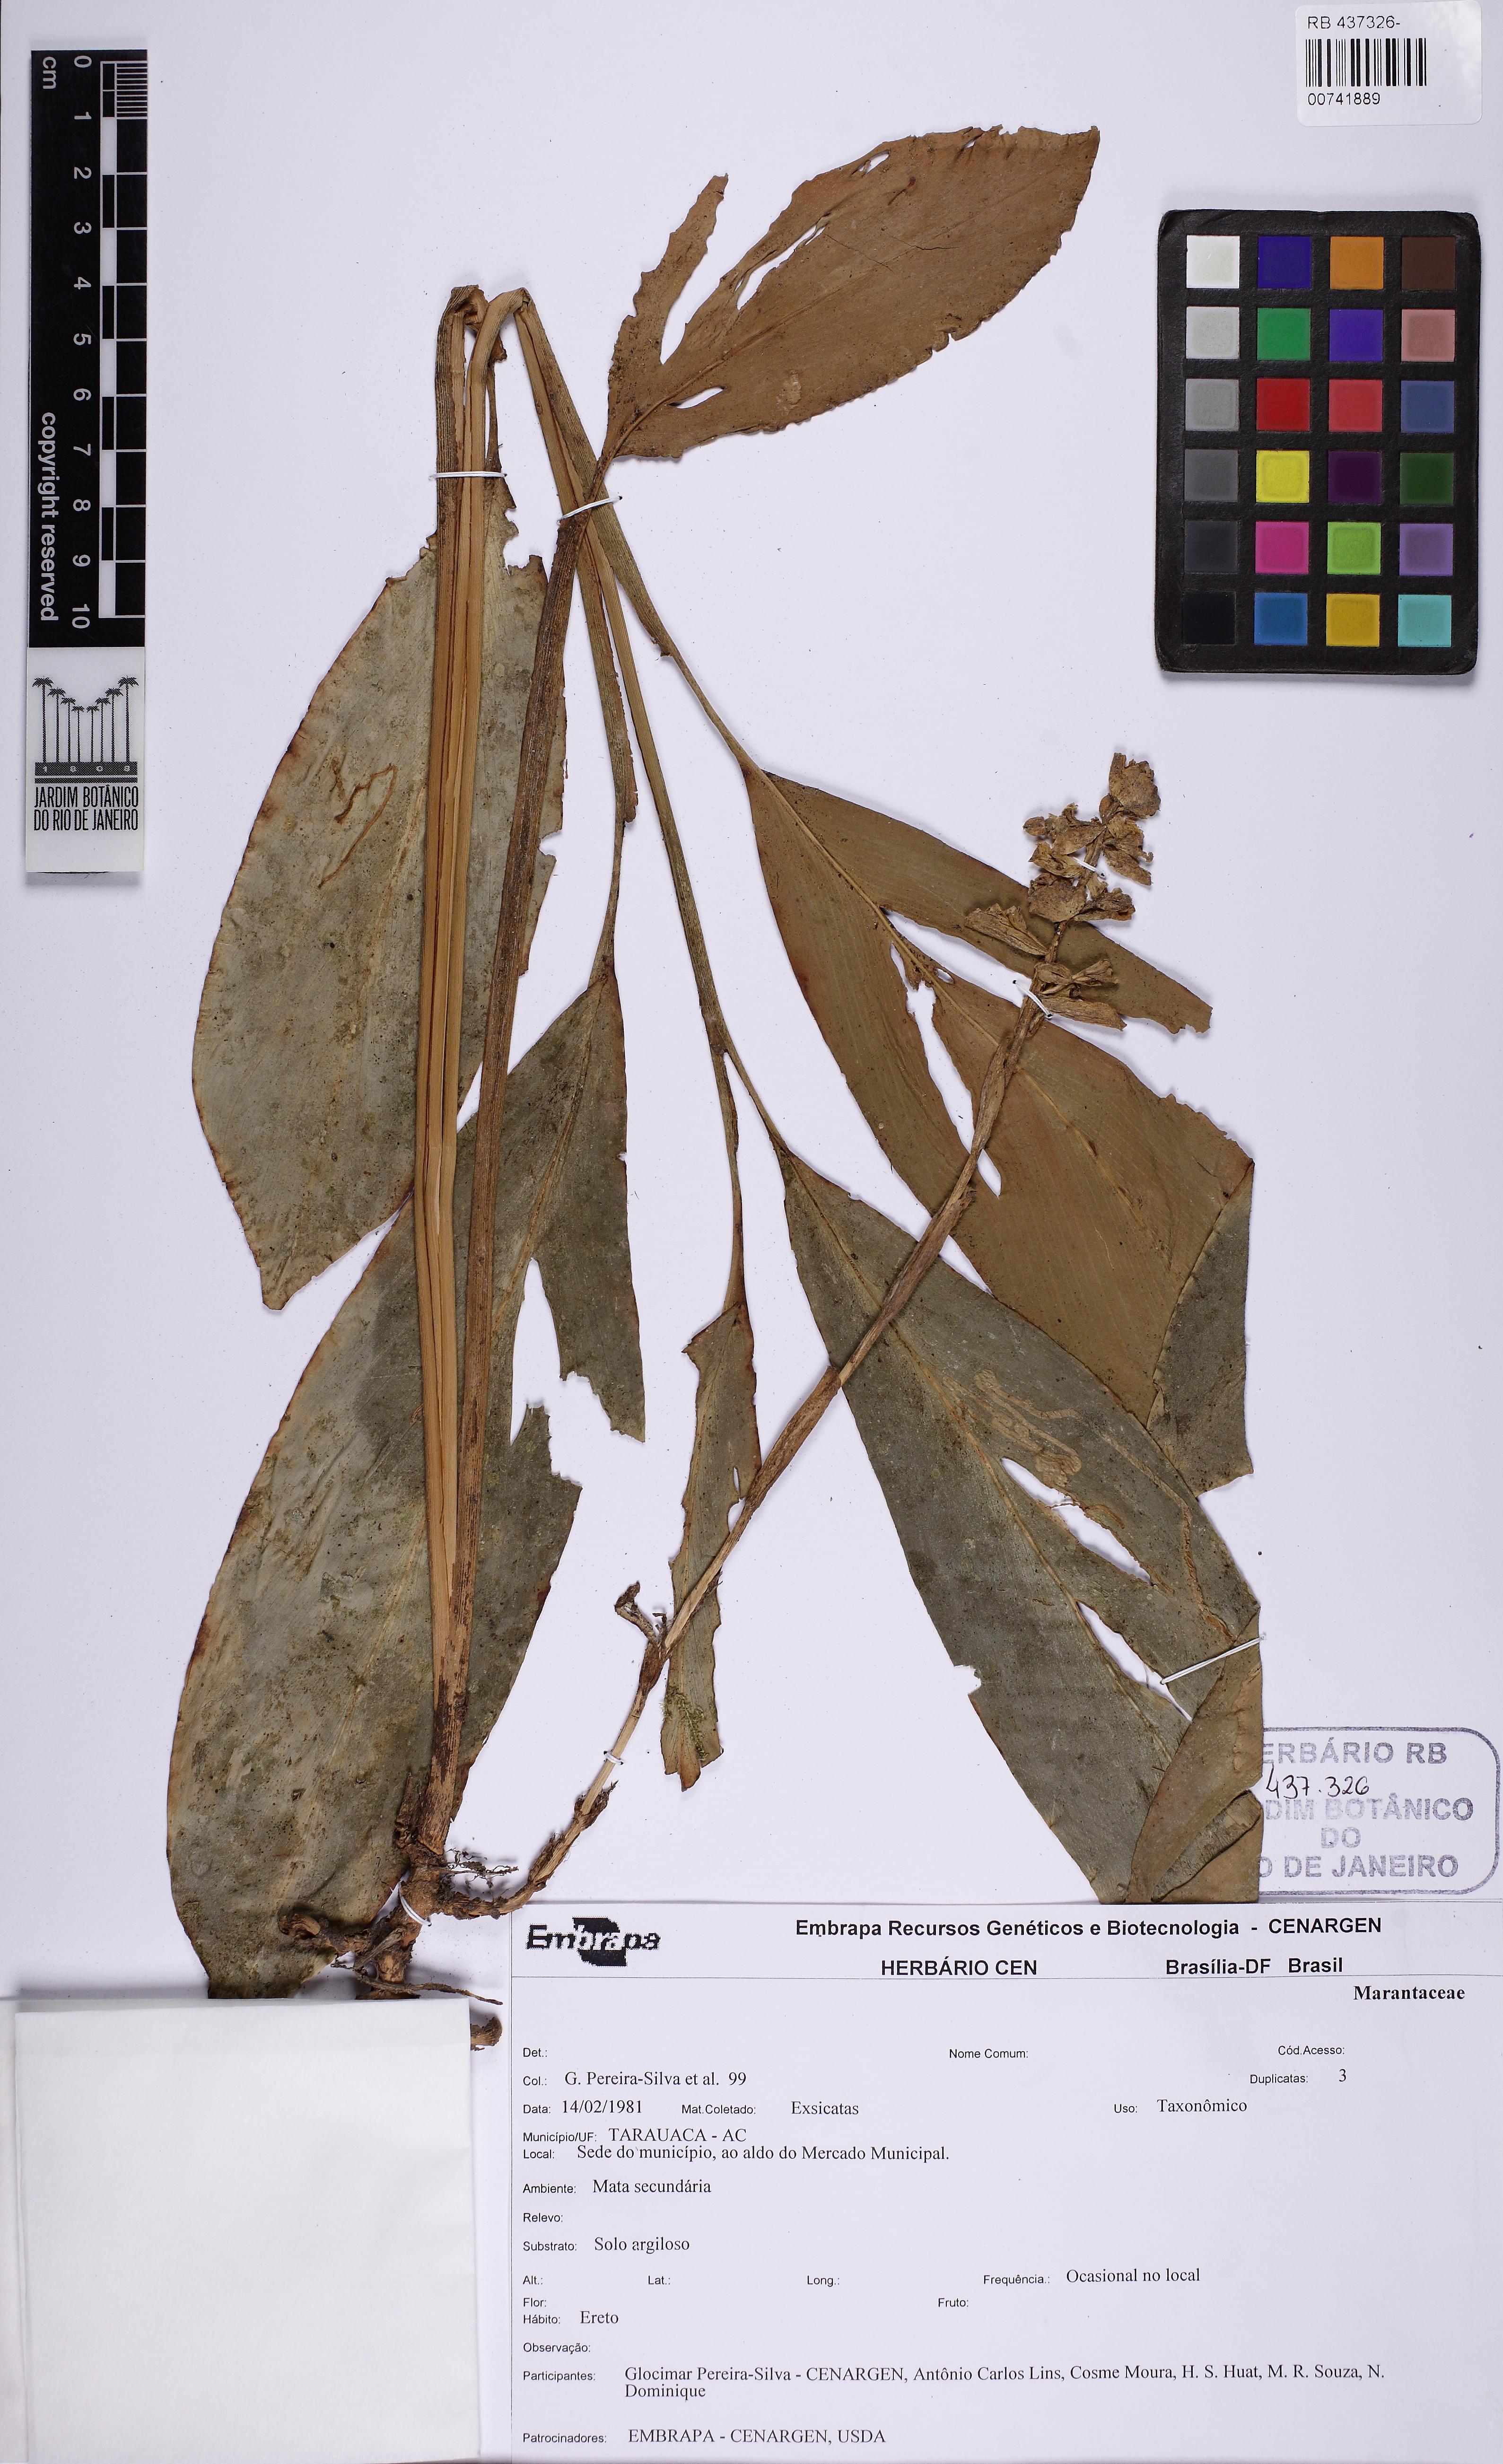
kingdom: Plantae
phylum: Tracheophyta
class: Liliopsida
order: Zingiberales
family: Zingiberaceae
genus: Renealmia
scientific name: Renealmia
